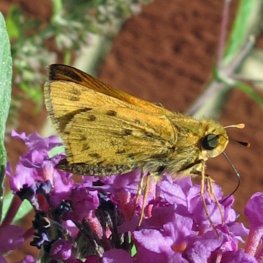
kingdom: Animalia
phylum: Arthropoda
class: Insecta
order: Lepidoptera
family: Hesperiidae
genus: Hylephila
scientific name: Hylephila phyleus
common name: Fiery Skipper
